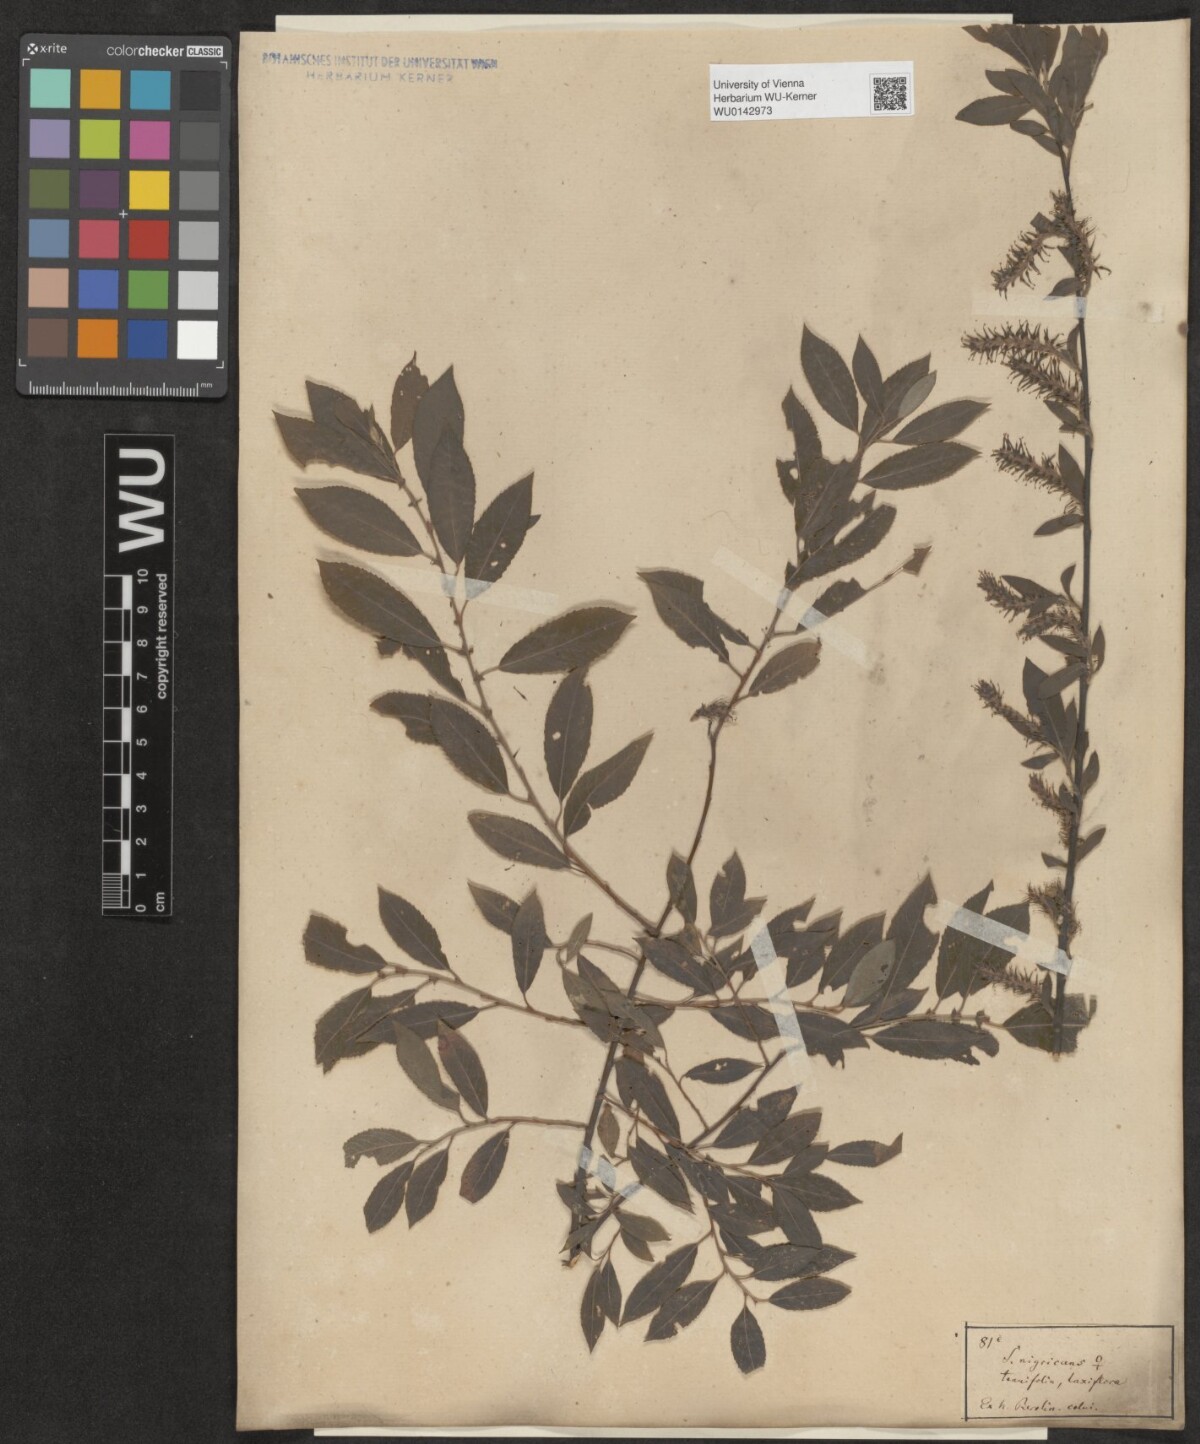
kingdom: Plantae
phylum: Tracheophyta
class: Magnoliopsida
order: Malpighiales
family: Salicaceae
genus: Salix
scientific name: Salix myrsinifolia
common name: Dark-leaved willow
